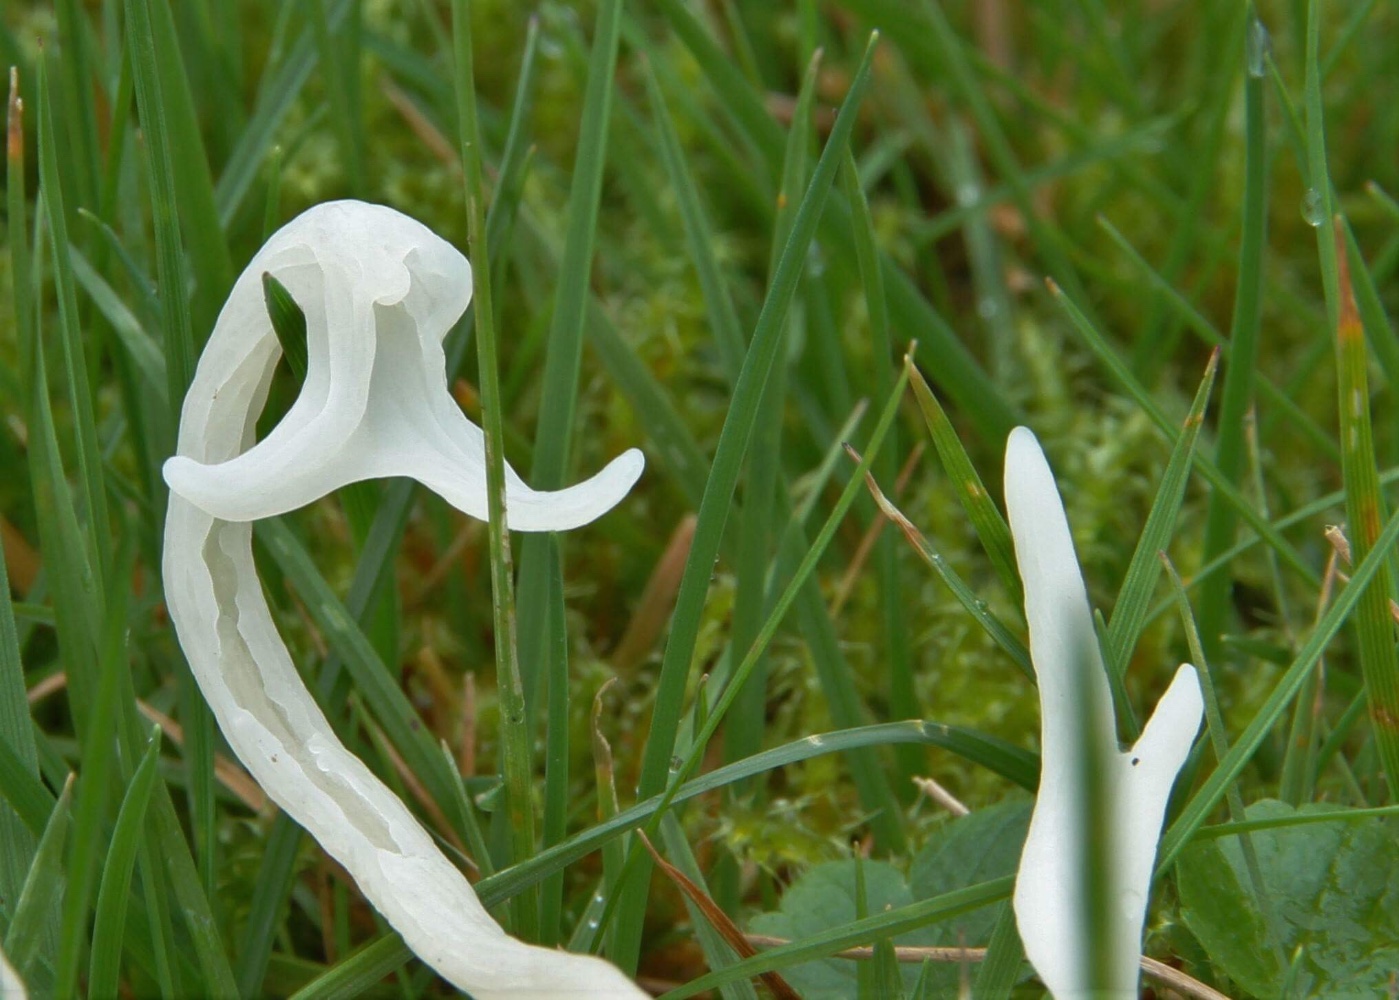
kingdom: Fungi
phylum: Basidiomycota
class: Agaricomycetes
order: Agaricales
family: Clavariaceae
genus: Clavaria
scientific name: Clavaria
